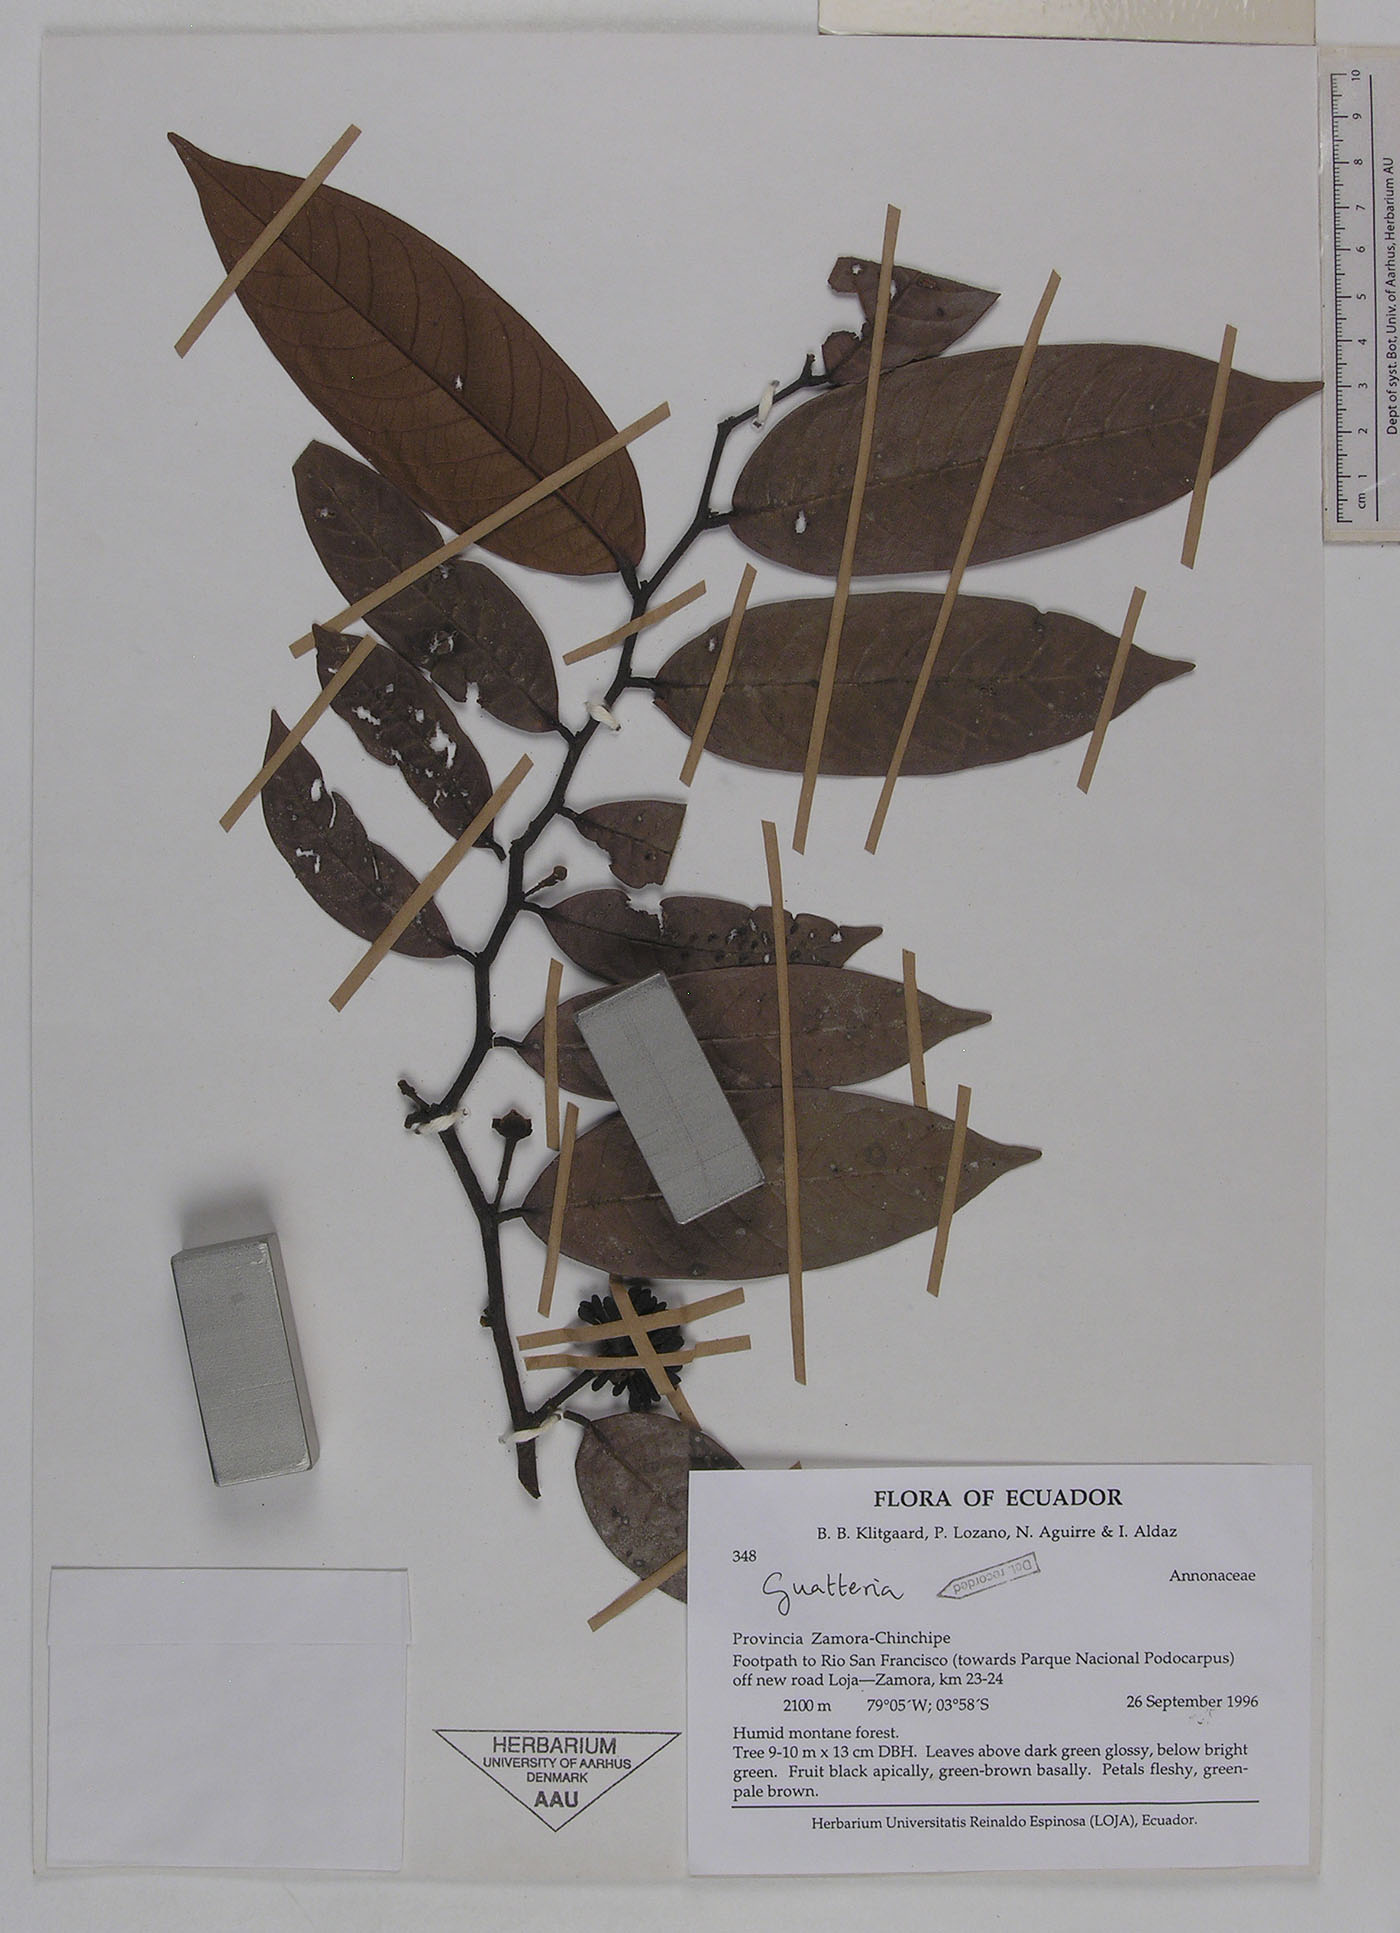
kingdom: Plantae
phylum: Tracheophyta
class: Magnoliopsida
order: Magnoliales
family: Annonaceae
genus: Guatteria
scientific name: Guatteria punctata
